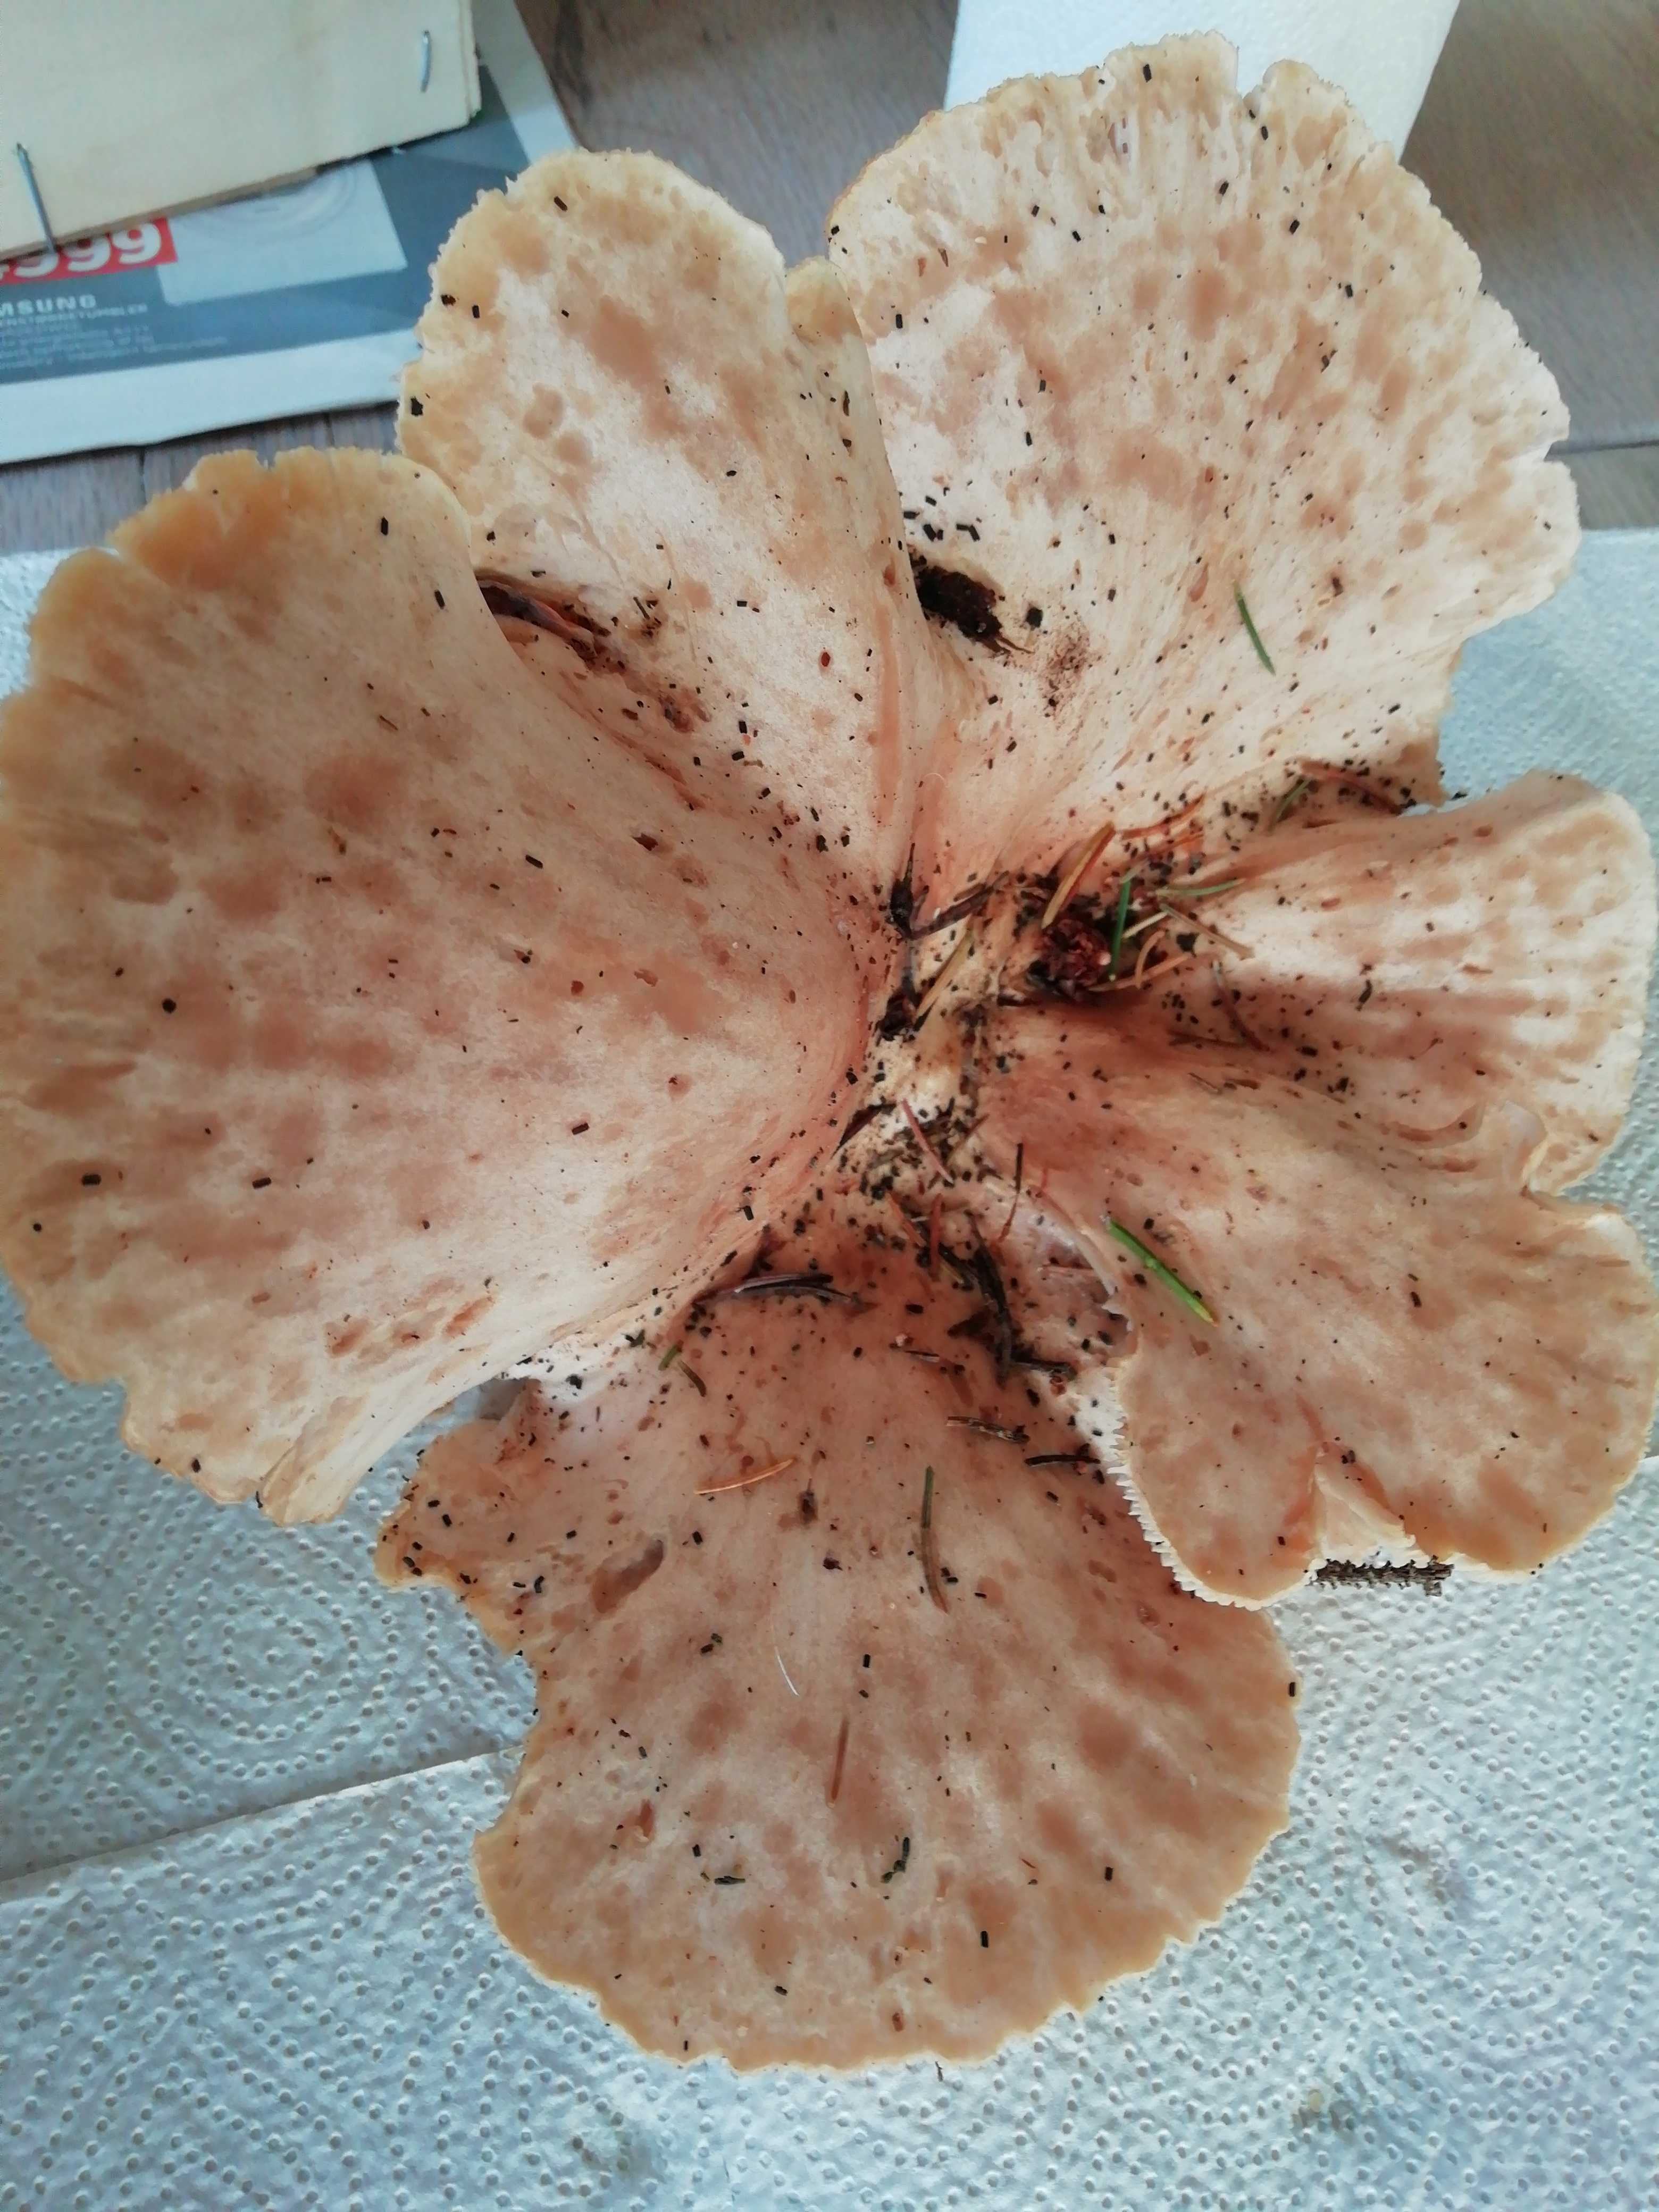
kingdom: Fungi
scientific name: Fungi
